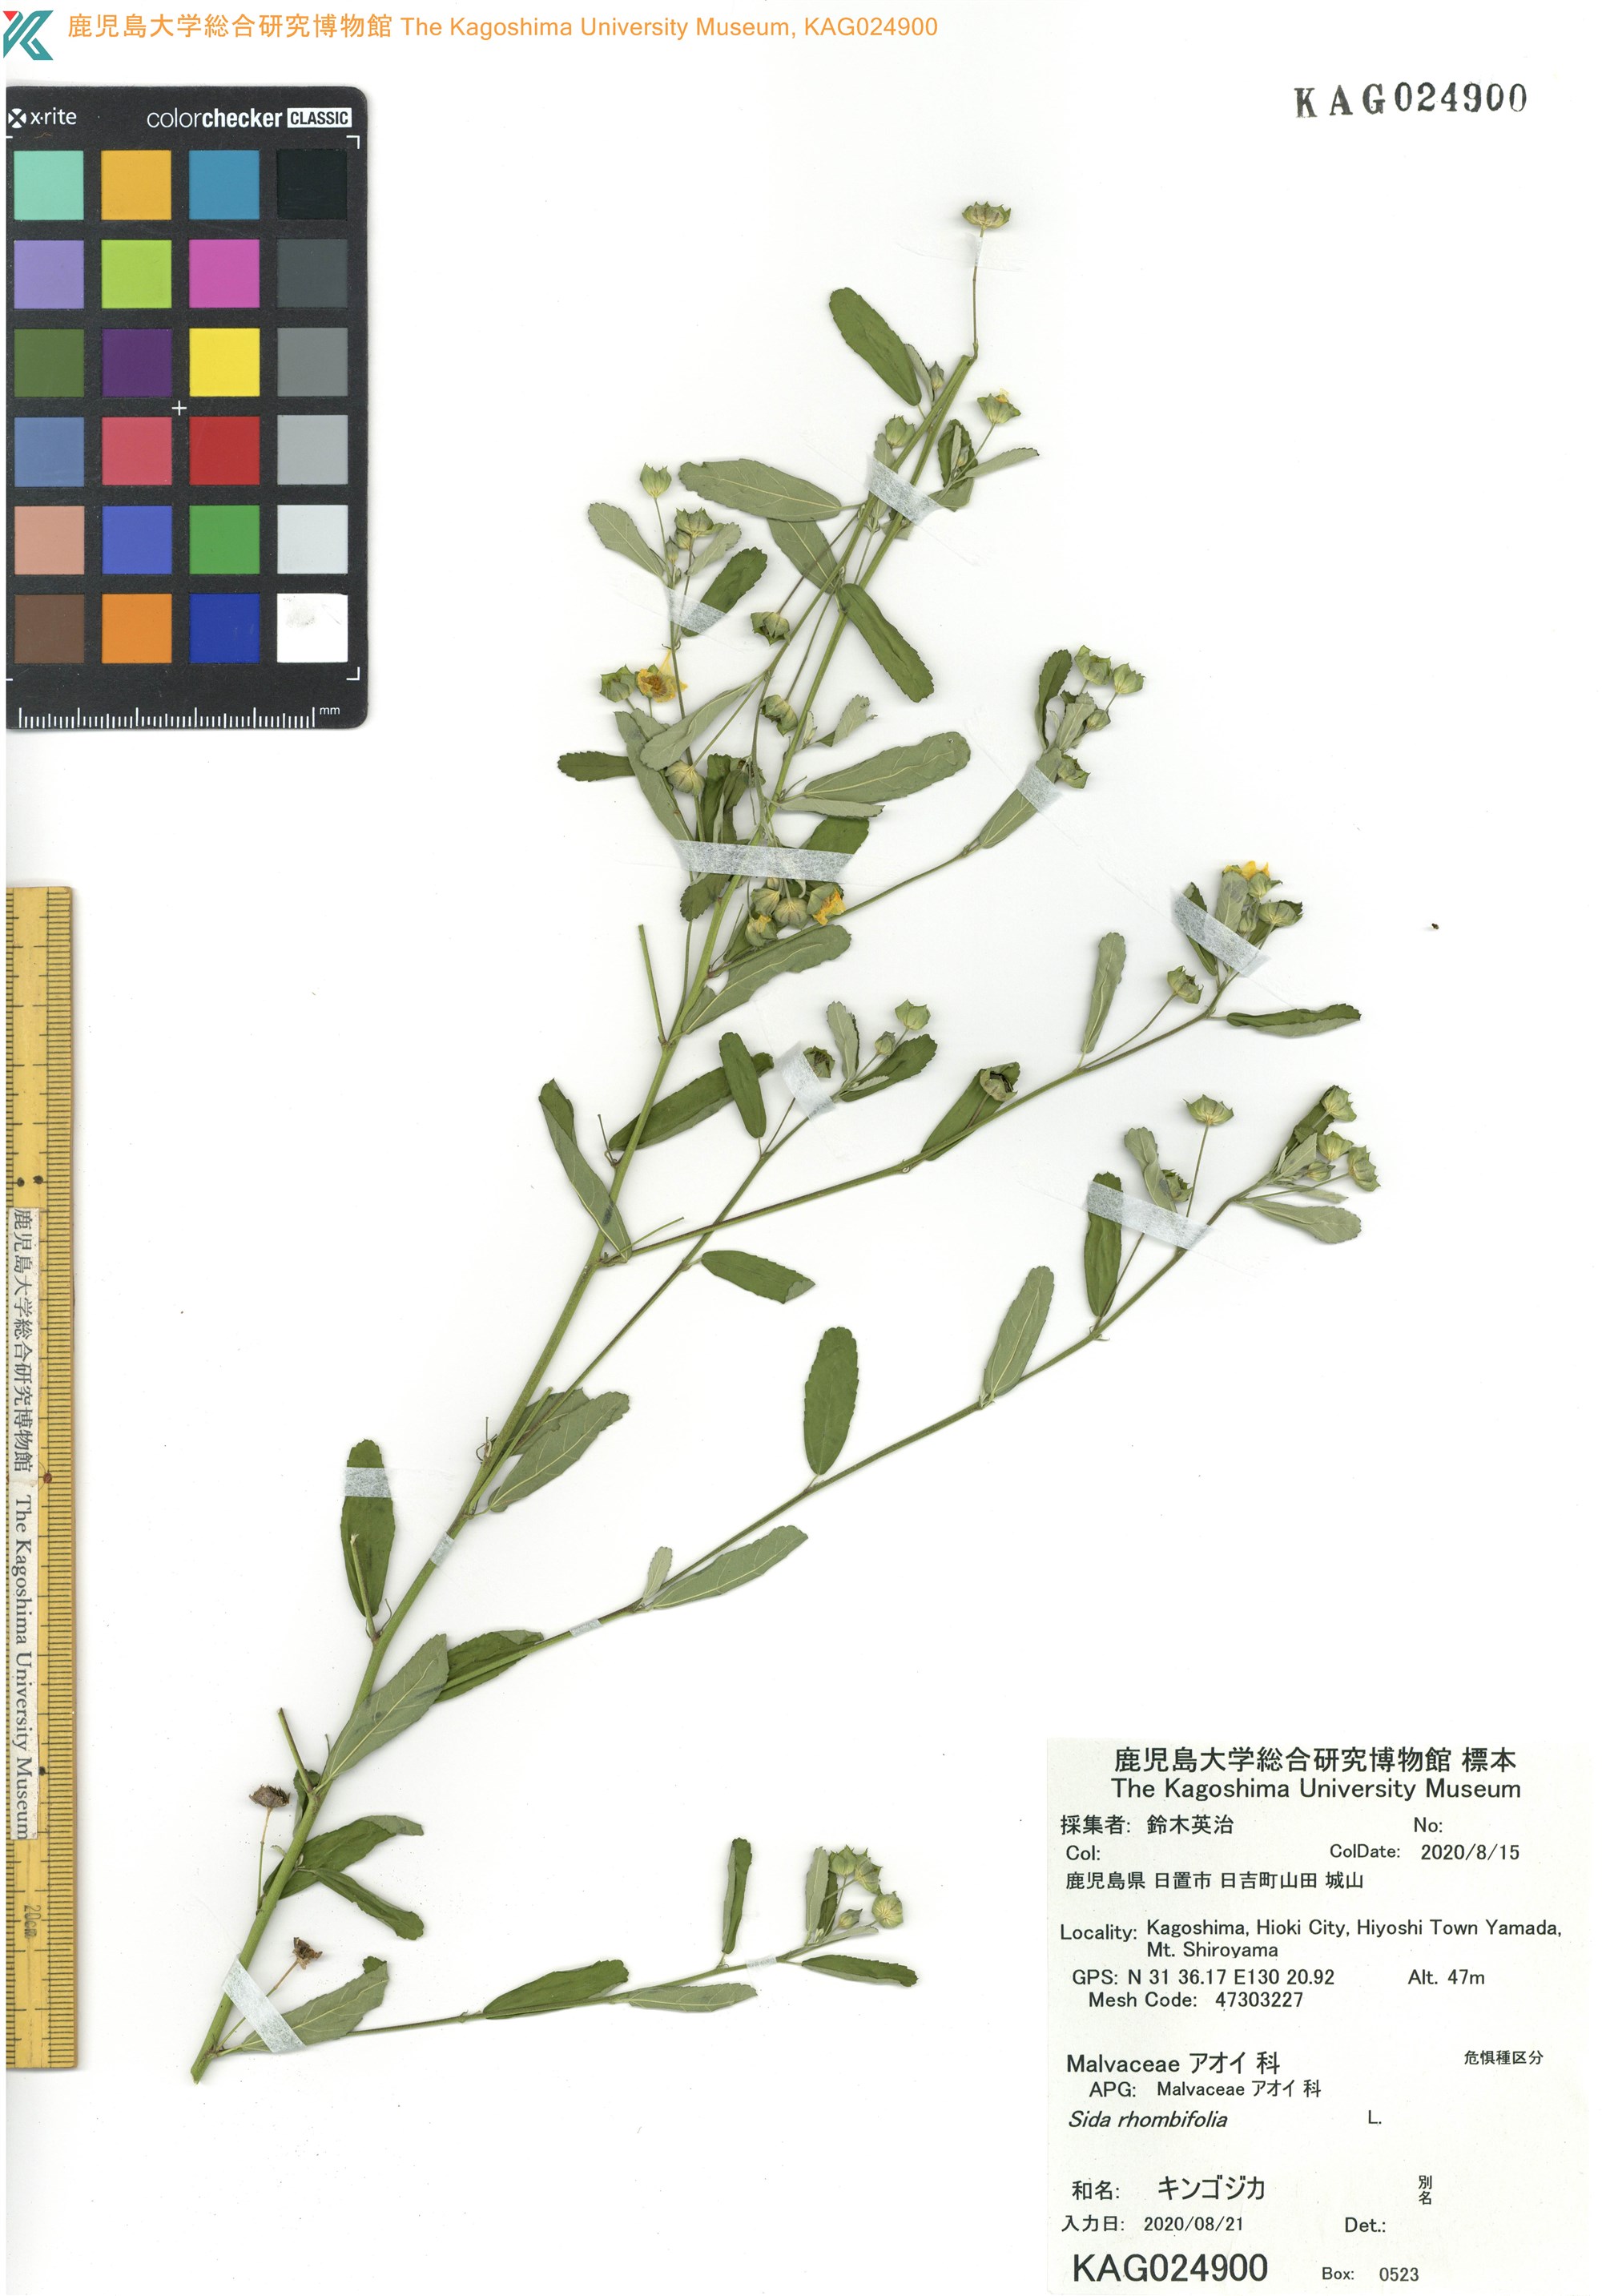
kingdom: Plantae
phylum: Tracheophyta
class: Magnoliopsida
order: Malvales
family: Malvaceae
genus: Sida
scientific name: Sida rhombifolia
